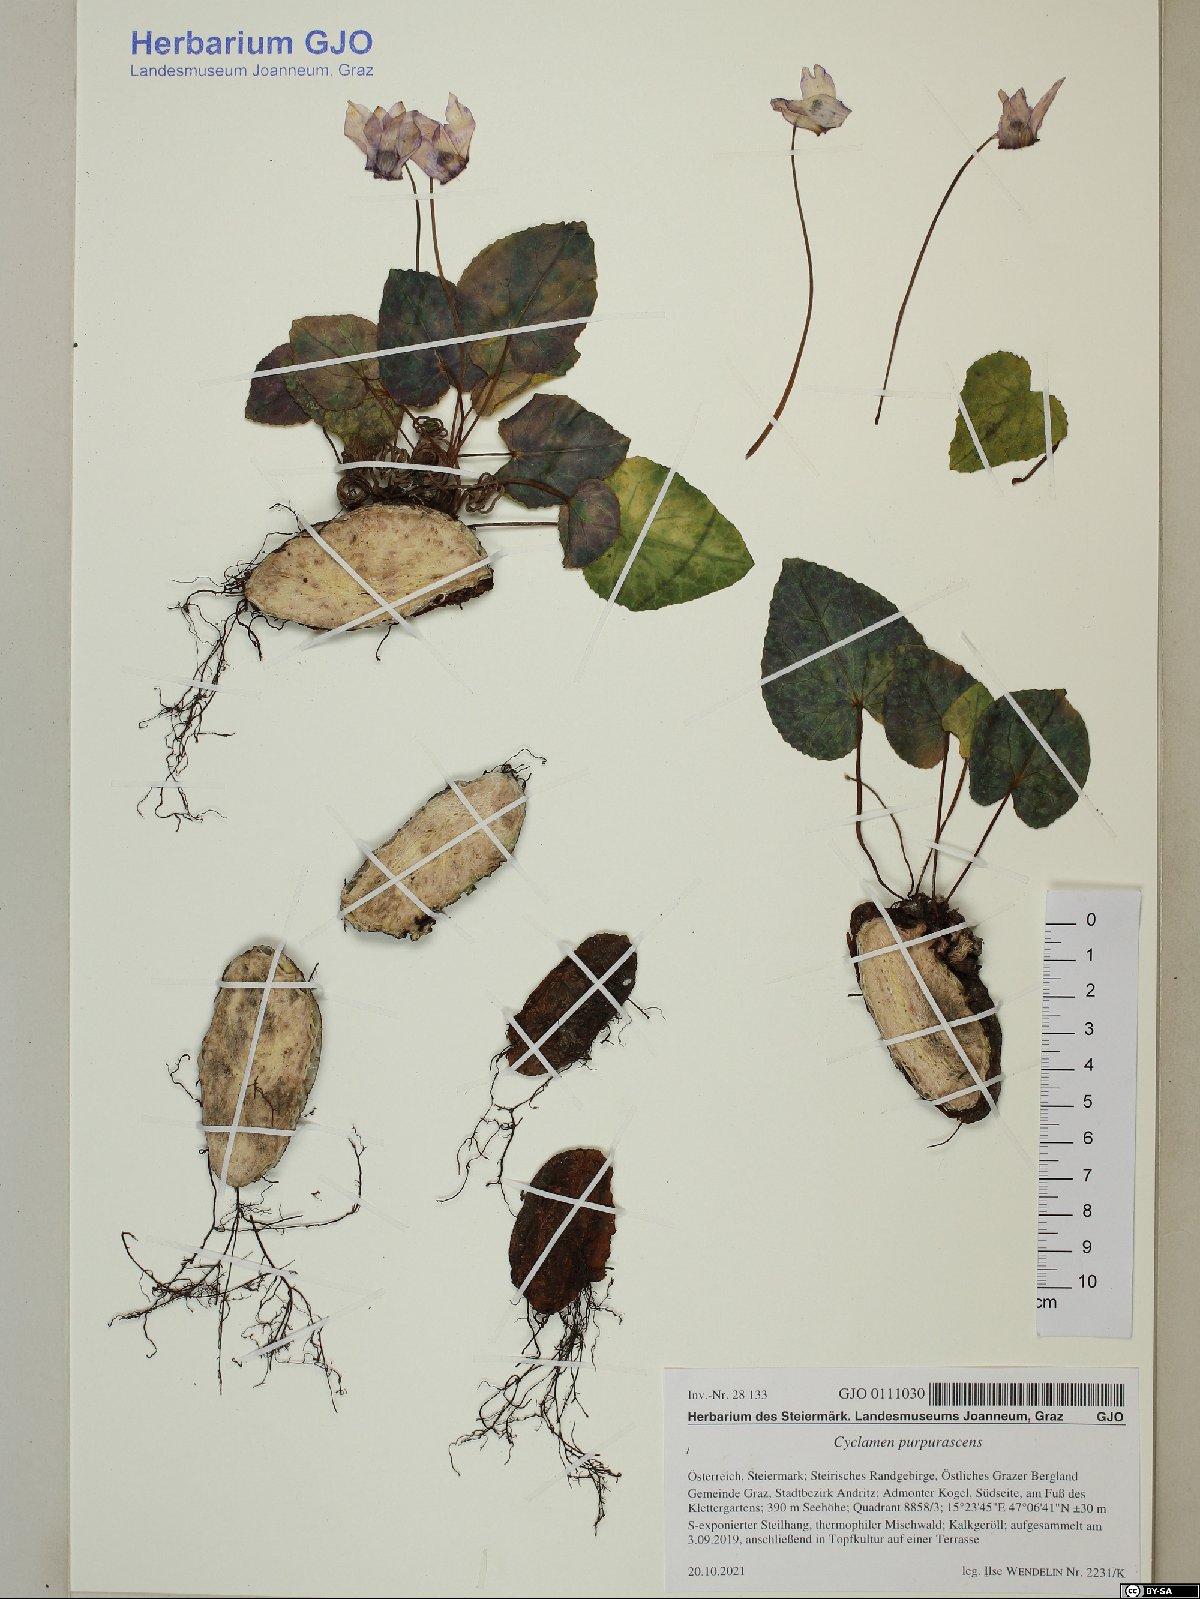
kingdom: Plantae
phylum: Tracheophyta
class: Magnoliopsida
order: Ericales
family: Primulaceae
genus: Cyclamen
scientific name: Cyclamen purpurascens
